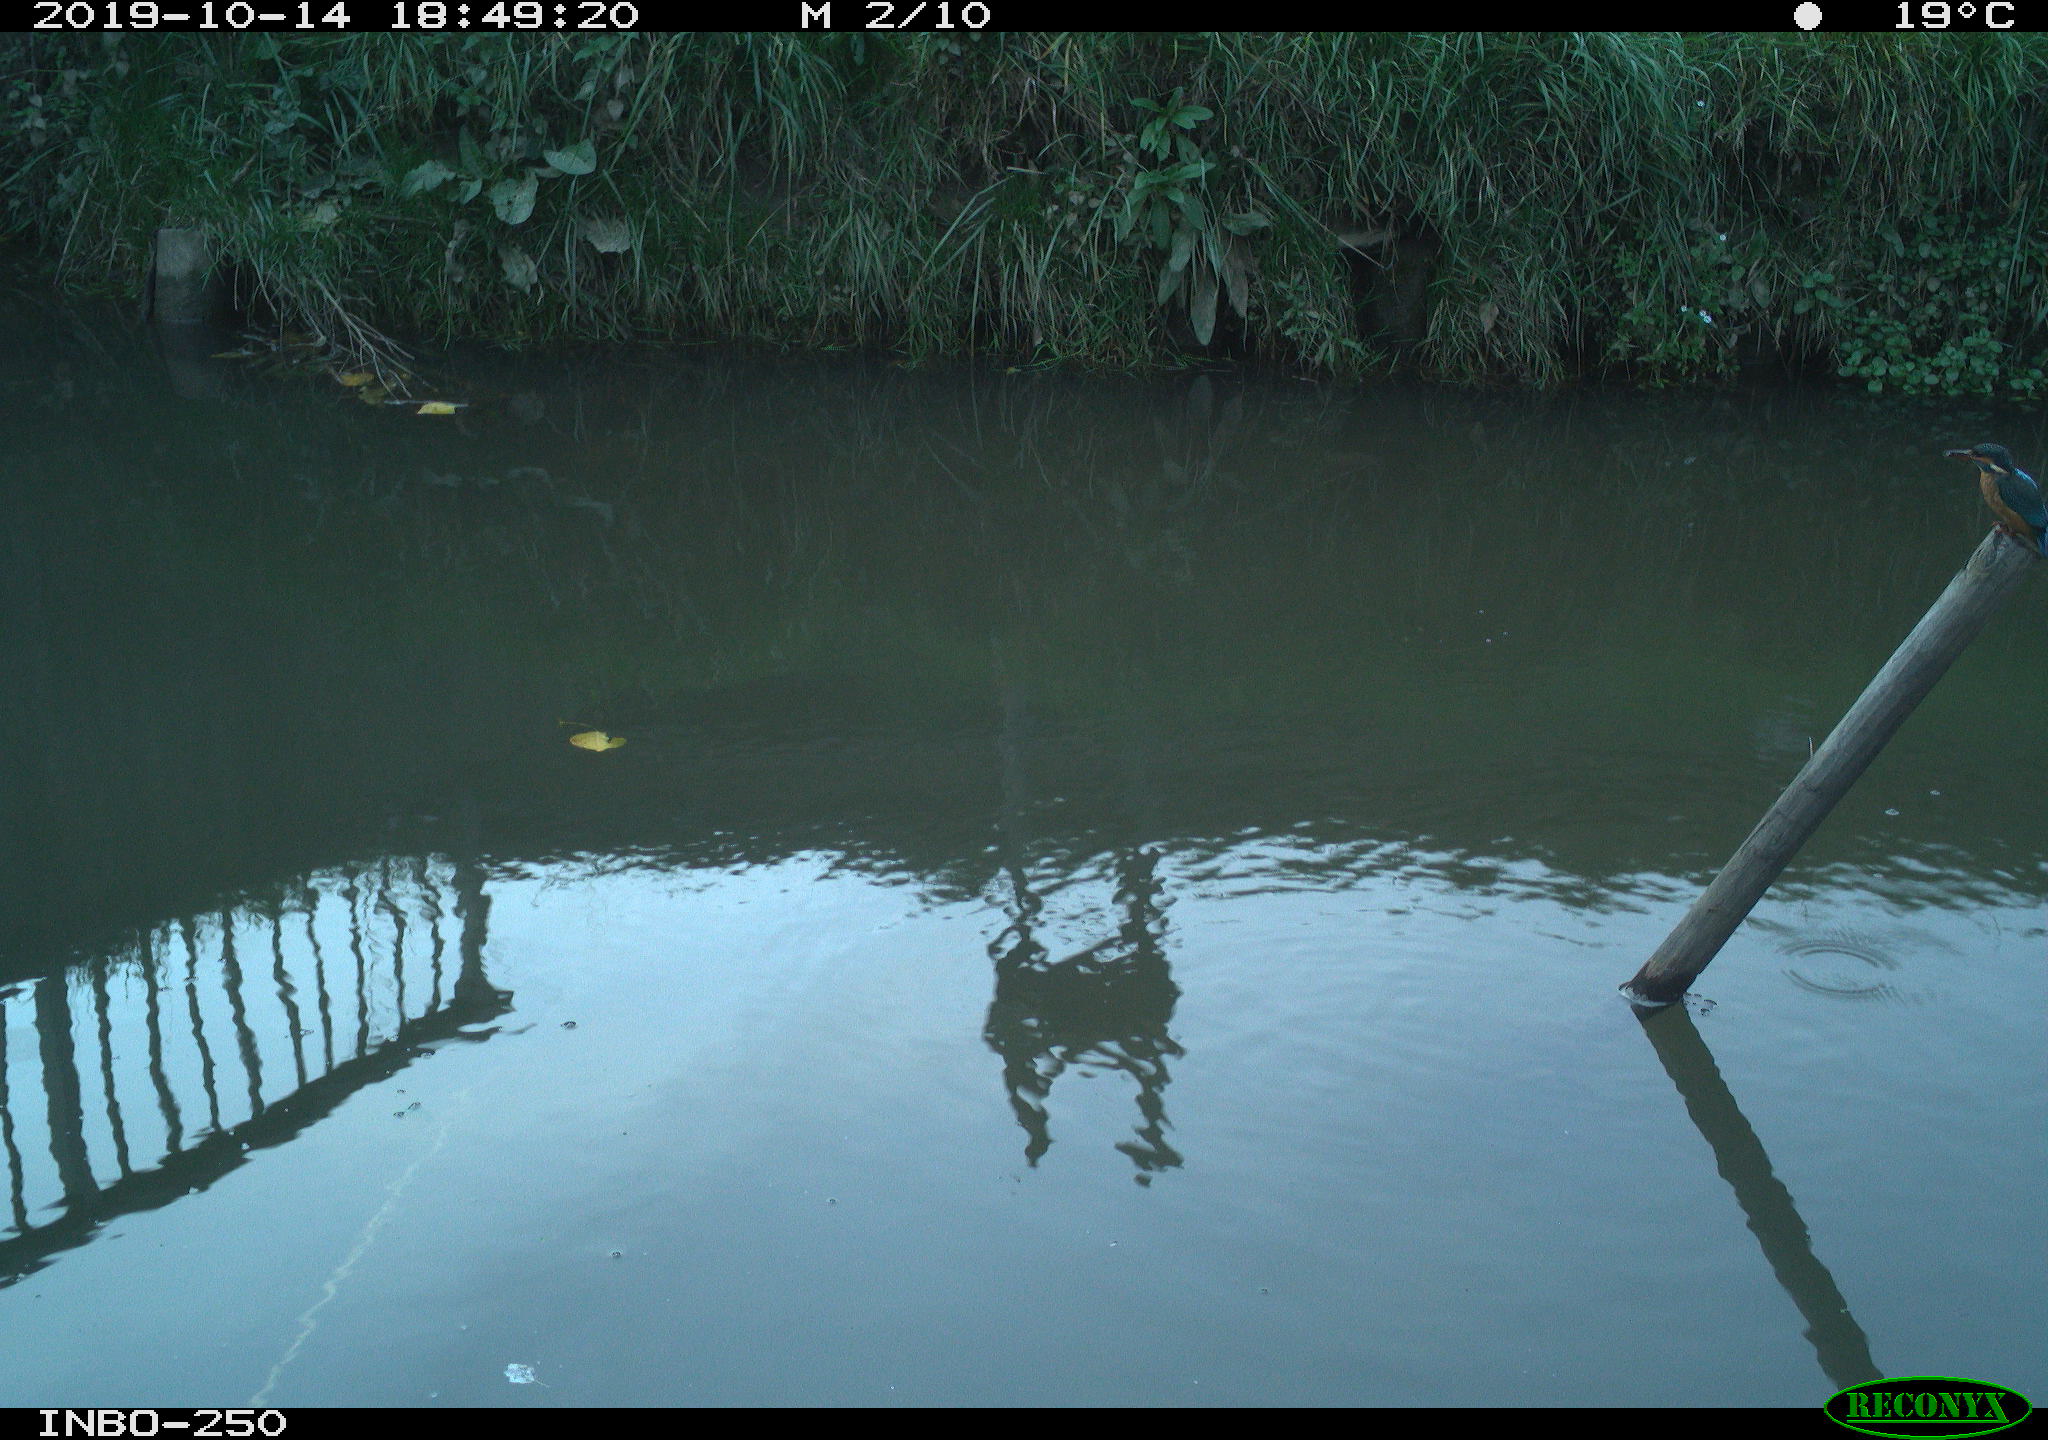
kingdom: Animalia
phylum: Chordata
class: Aves
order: Coraciiformes
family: Alcedinidae
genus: Alcedo
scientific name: Alcedo atthis
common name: Common kingfisher
